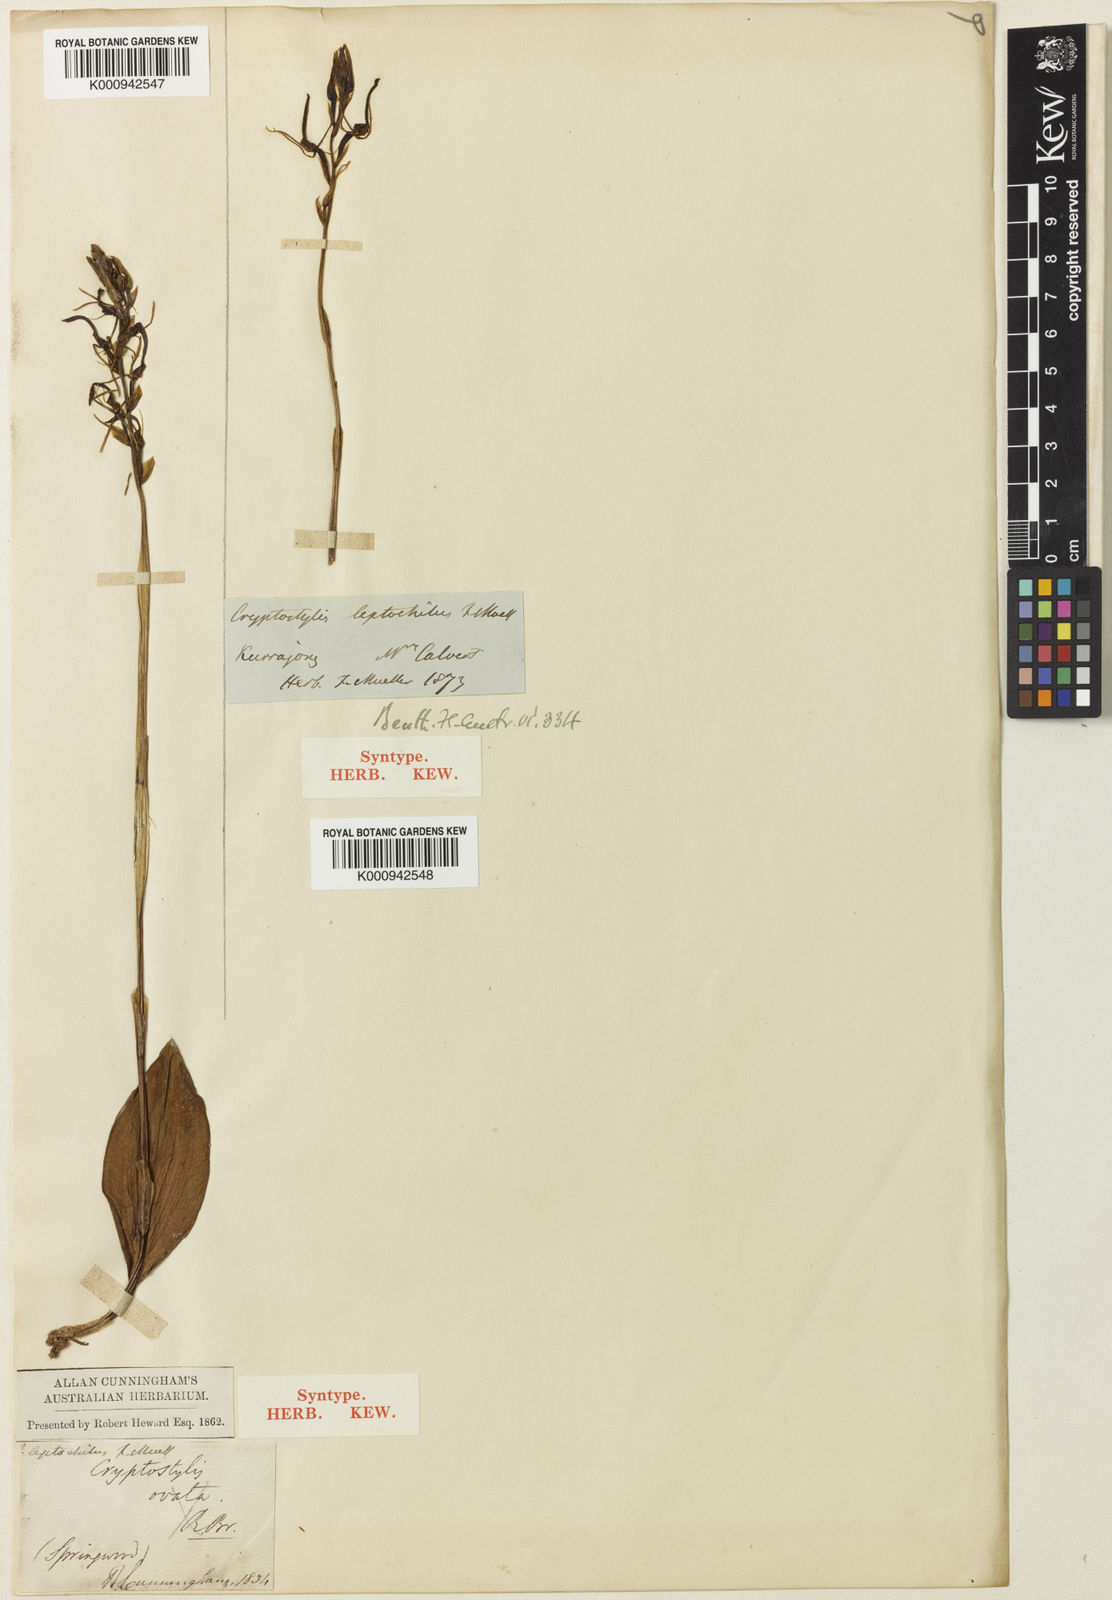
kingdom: Plantae
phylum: Tracheophyta
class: Liliopsida
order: Asparagales
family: Orchidaceae
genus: Cryptostylis
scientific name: Cryptostylis leptochila
